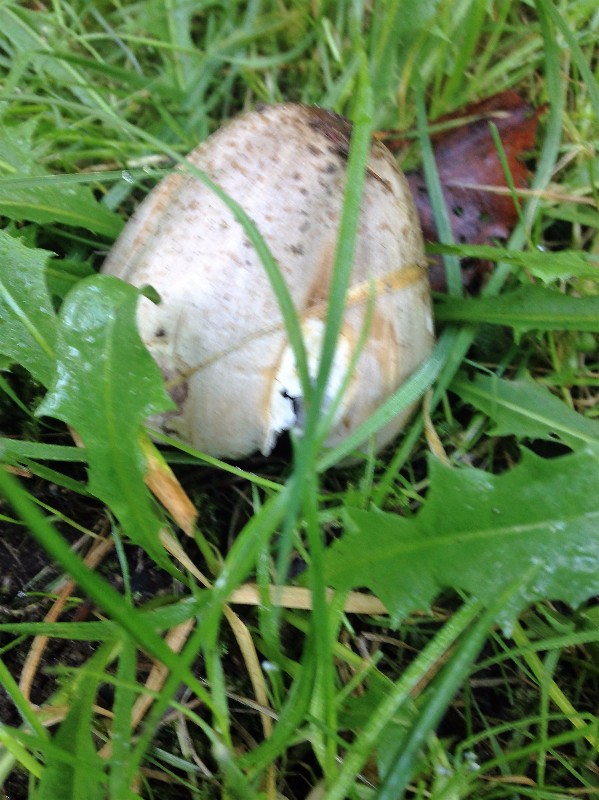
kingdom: Fungi
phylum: Basidiomycota
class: Agaricomycetes
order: Agaricales
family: Psathyrellaceae
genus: Coprinopsis
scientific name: Coprinopsis romagnesiana
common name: brunskællet blækhat
